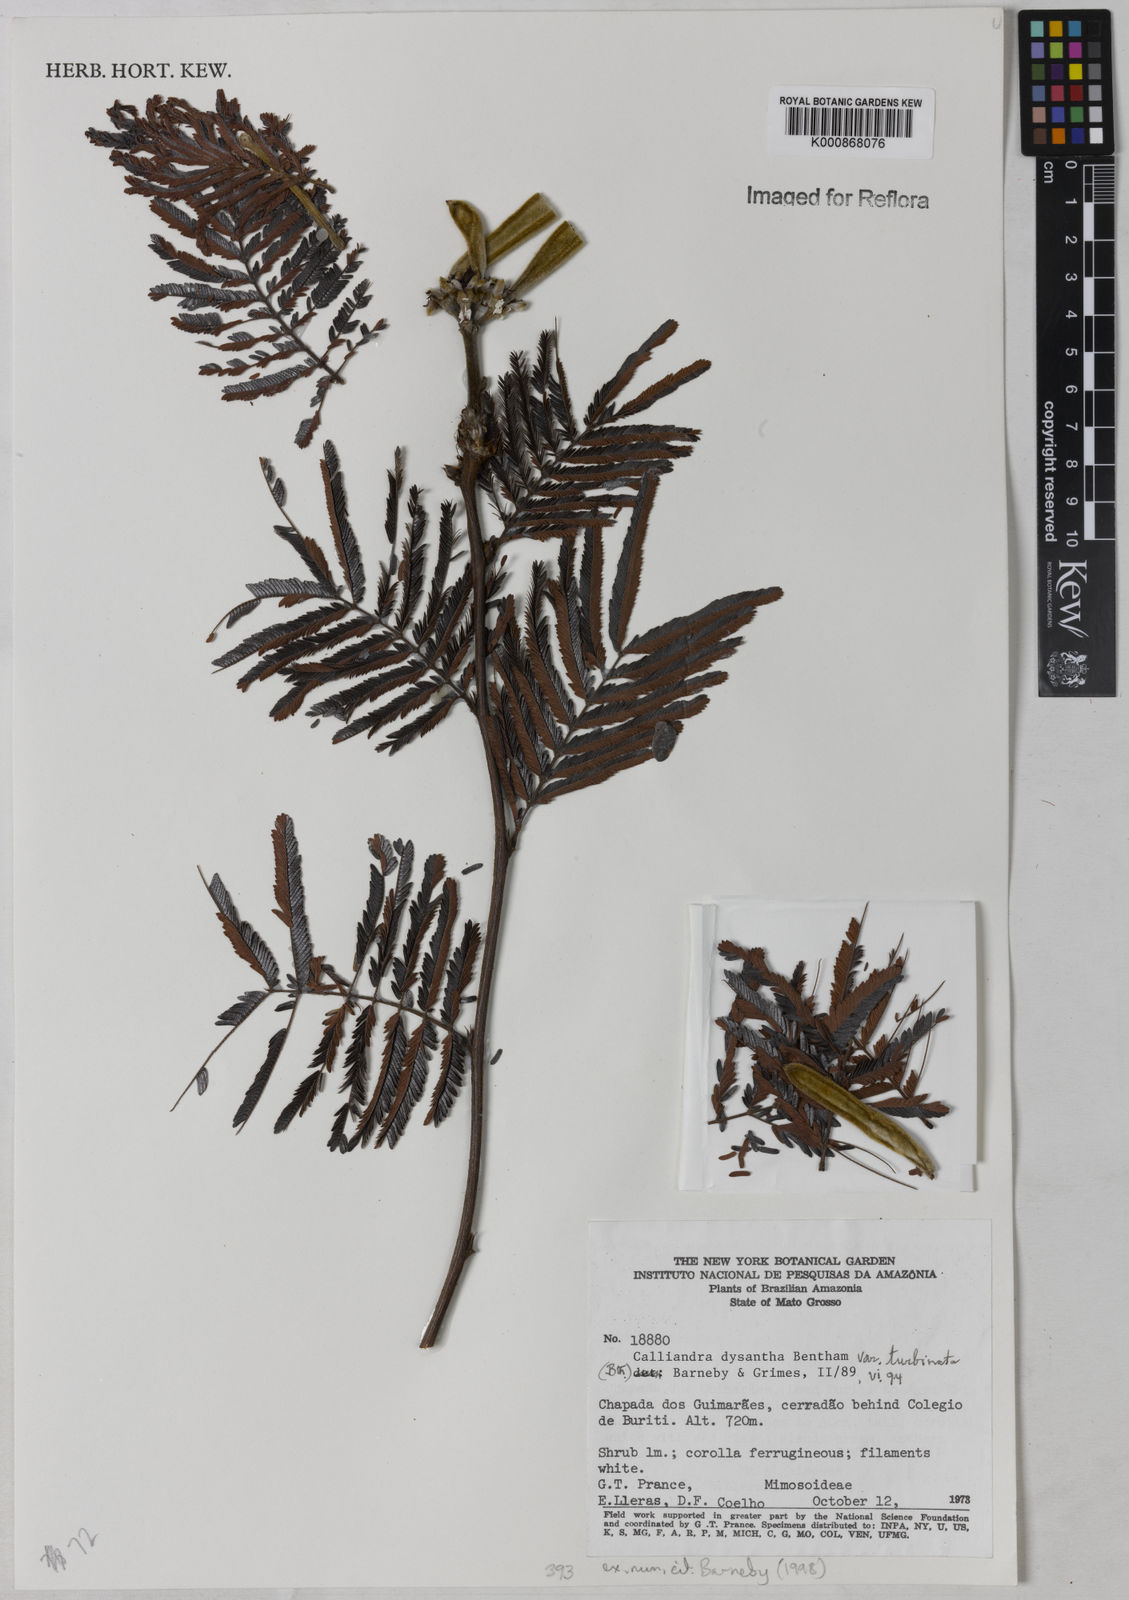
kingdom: Plantae
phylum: Tracheophyta
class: Magnoliopsida
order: Fabales
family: Fabaceae
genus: Calliandra
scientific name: Calliandra dysantha
